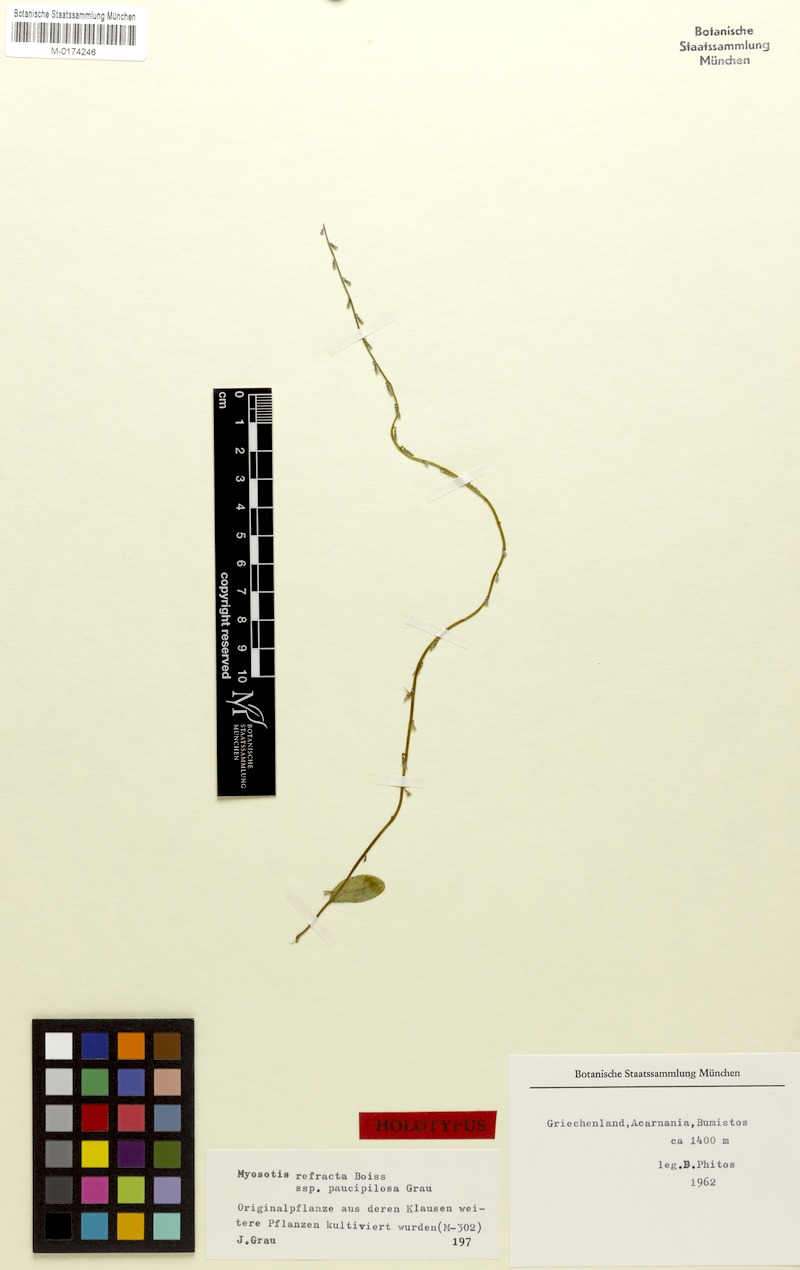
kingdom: Plantae
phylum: Tracheophyta
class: Magnoliopsida
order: Boraginales
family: Boraginaceae
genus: Myosotis
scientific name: Myosotis paucipilosa
